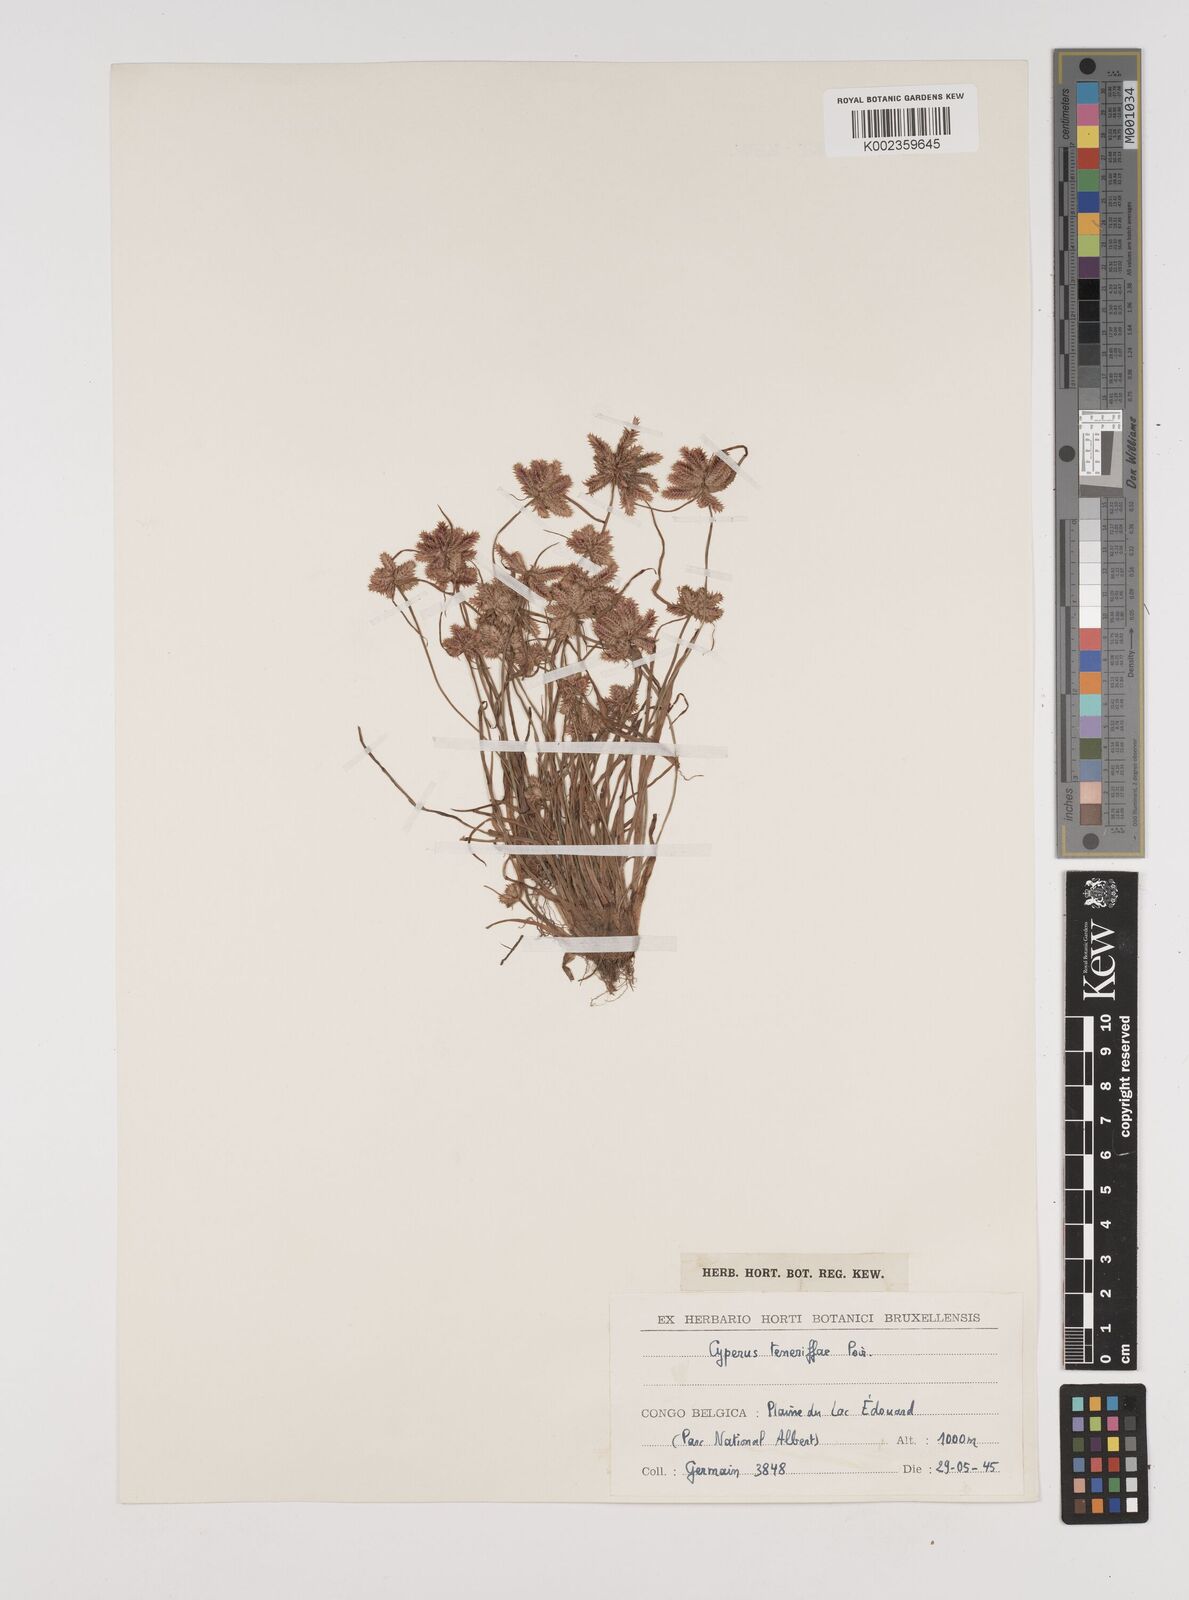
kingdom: Plantae
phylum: Tracheophyta
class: Liliopsida
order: Poales
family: Cyperaceae
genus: Cyperus
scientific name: Cyperus rubicundus
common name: Coco-grass
